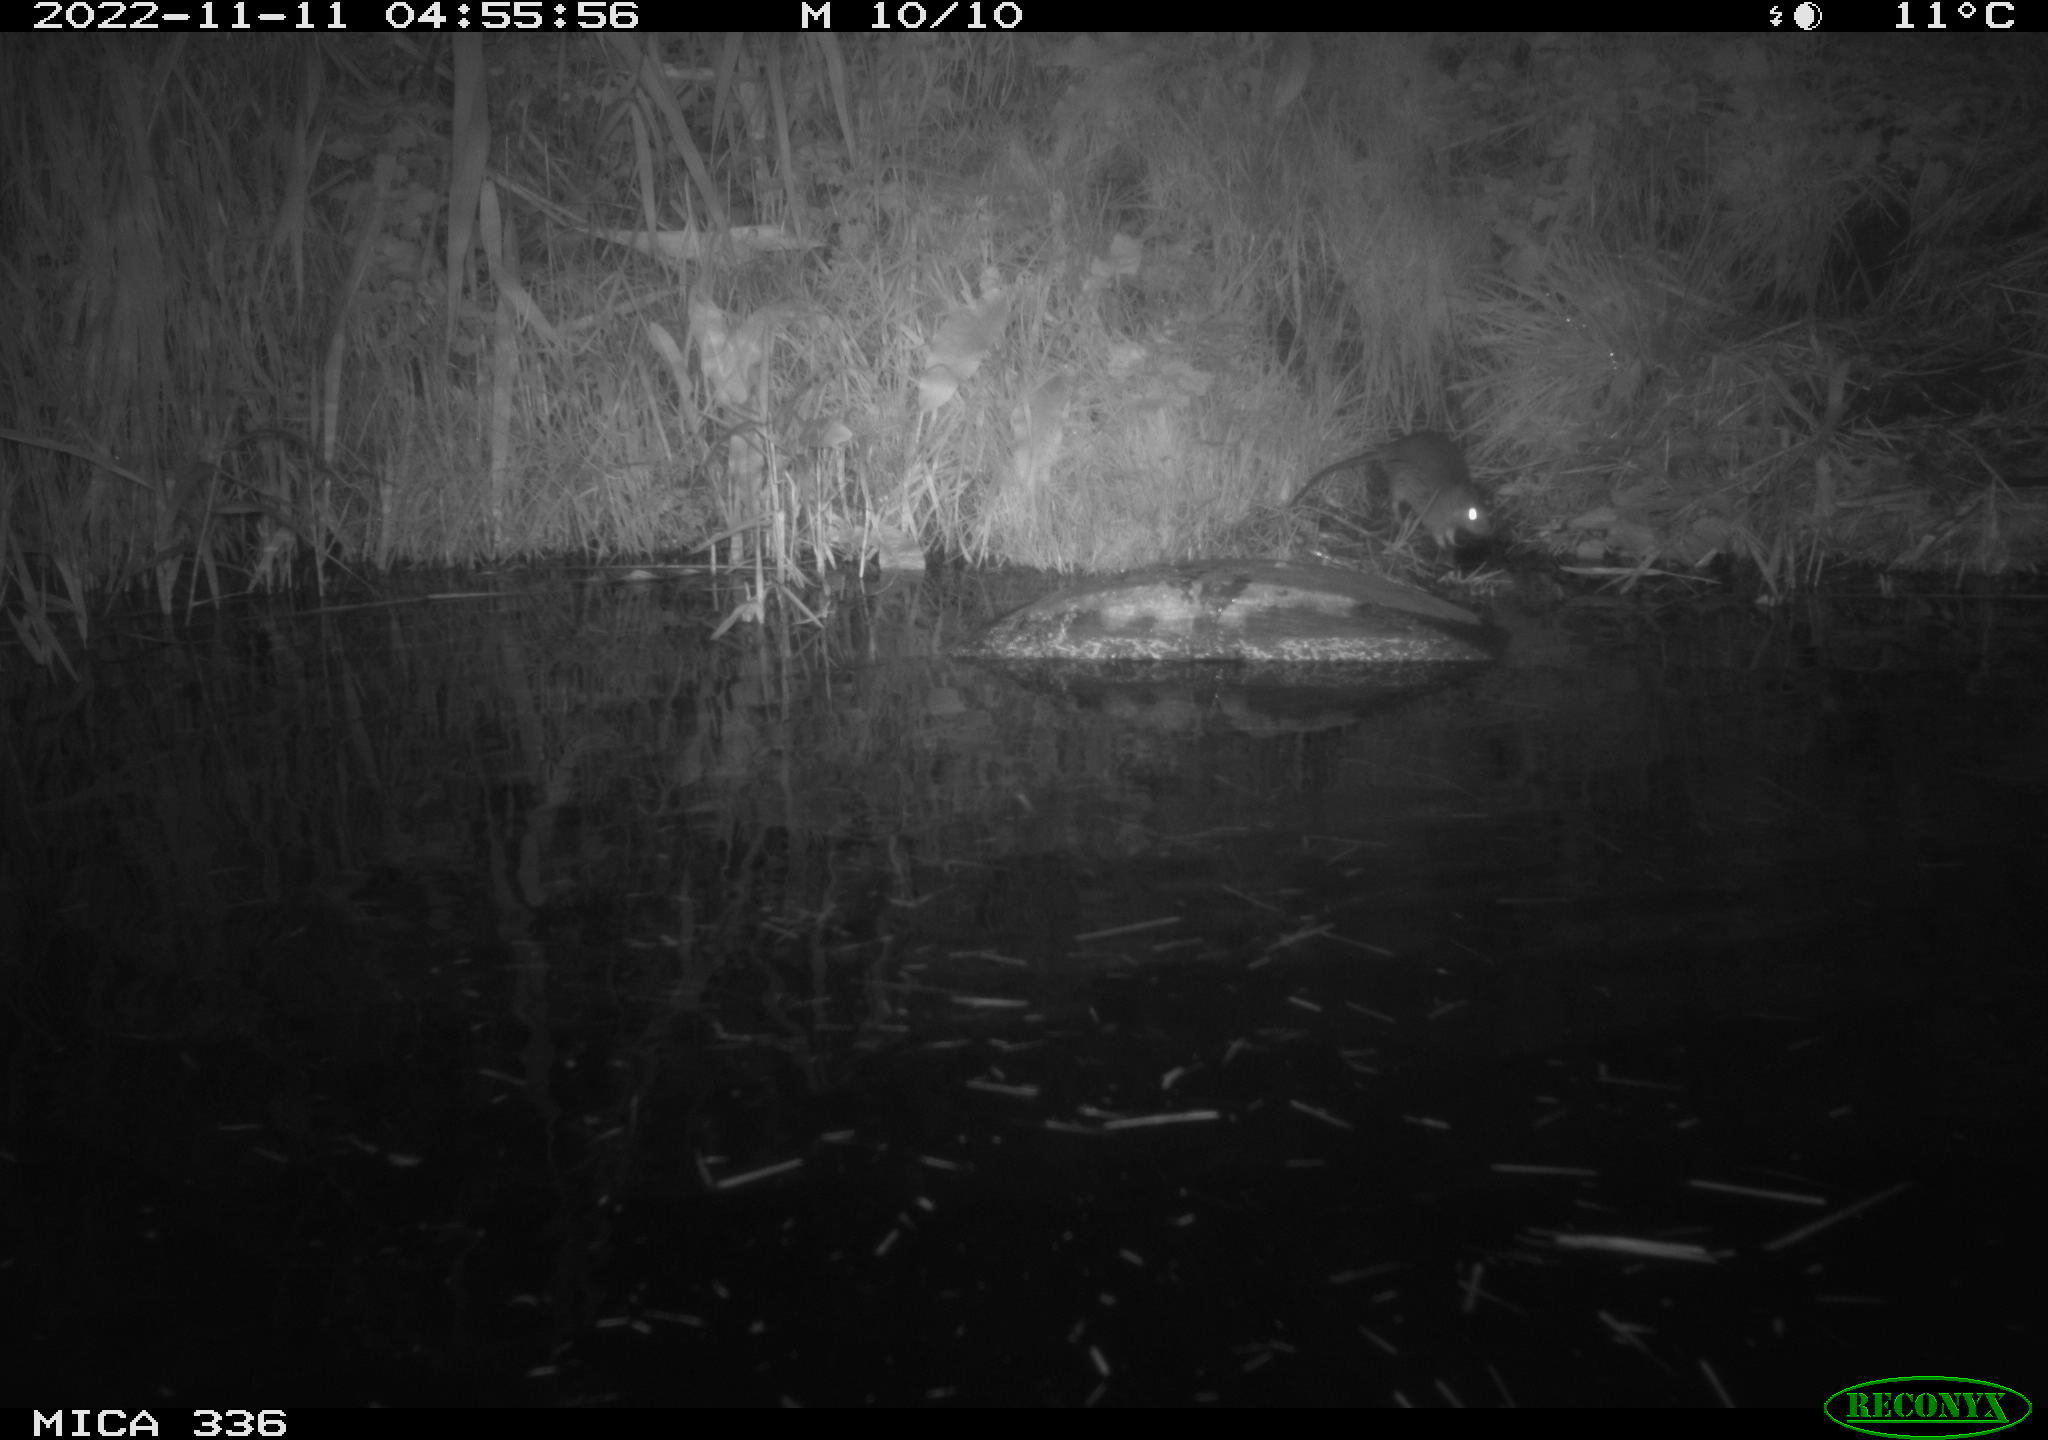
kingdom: Animalia
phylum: Chordata
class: Mammalia
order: Rodentia
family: Muridae
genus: Rattus
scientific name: Rattus norvegicus
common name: Brown rat
